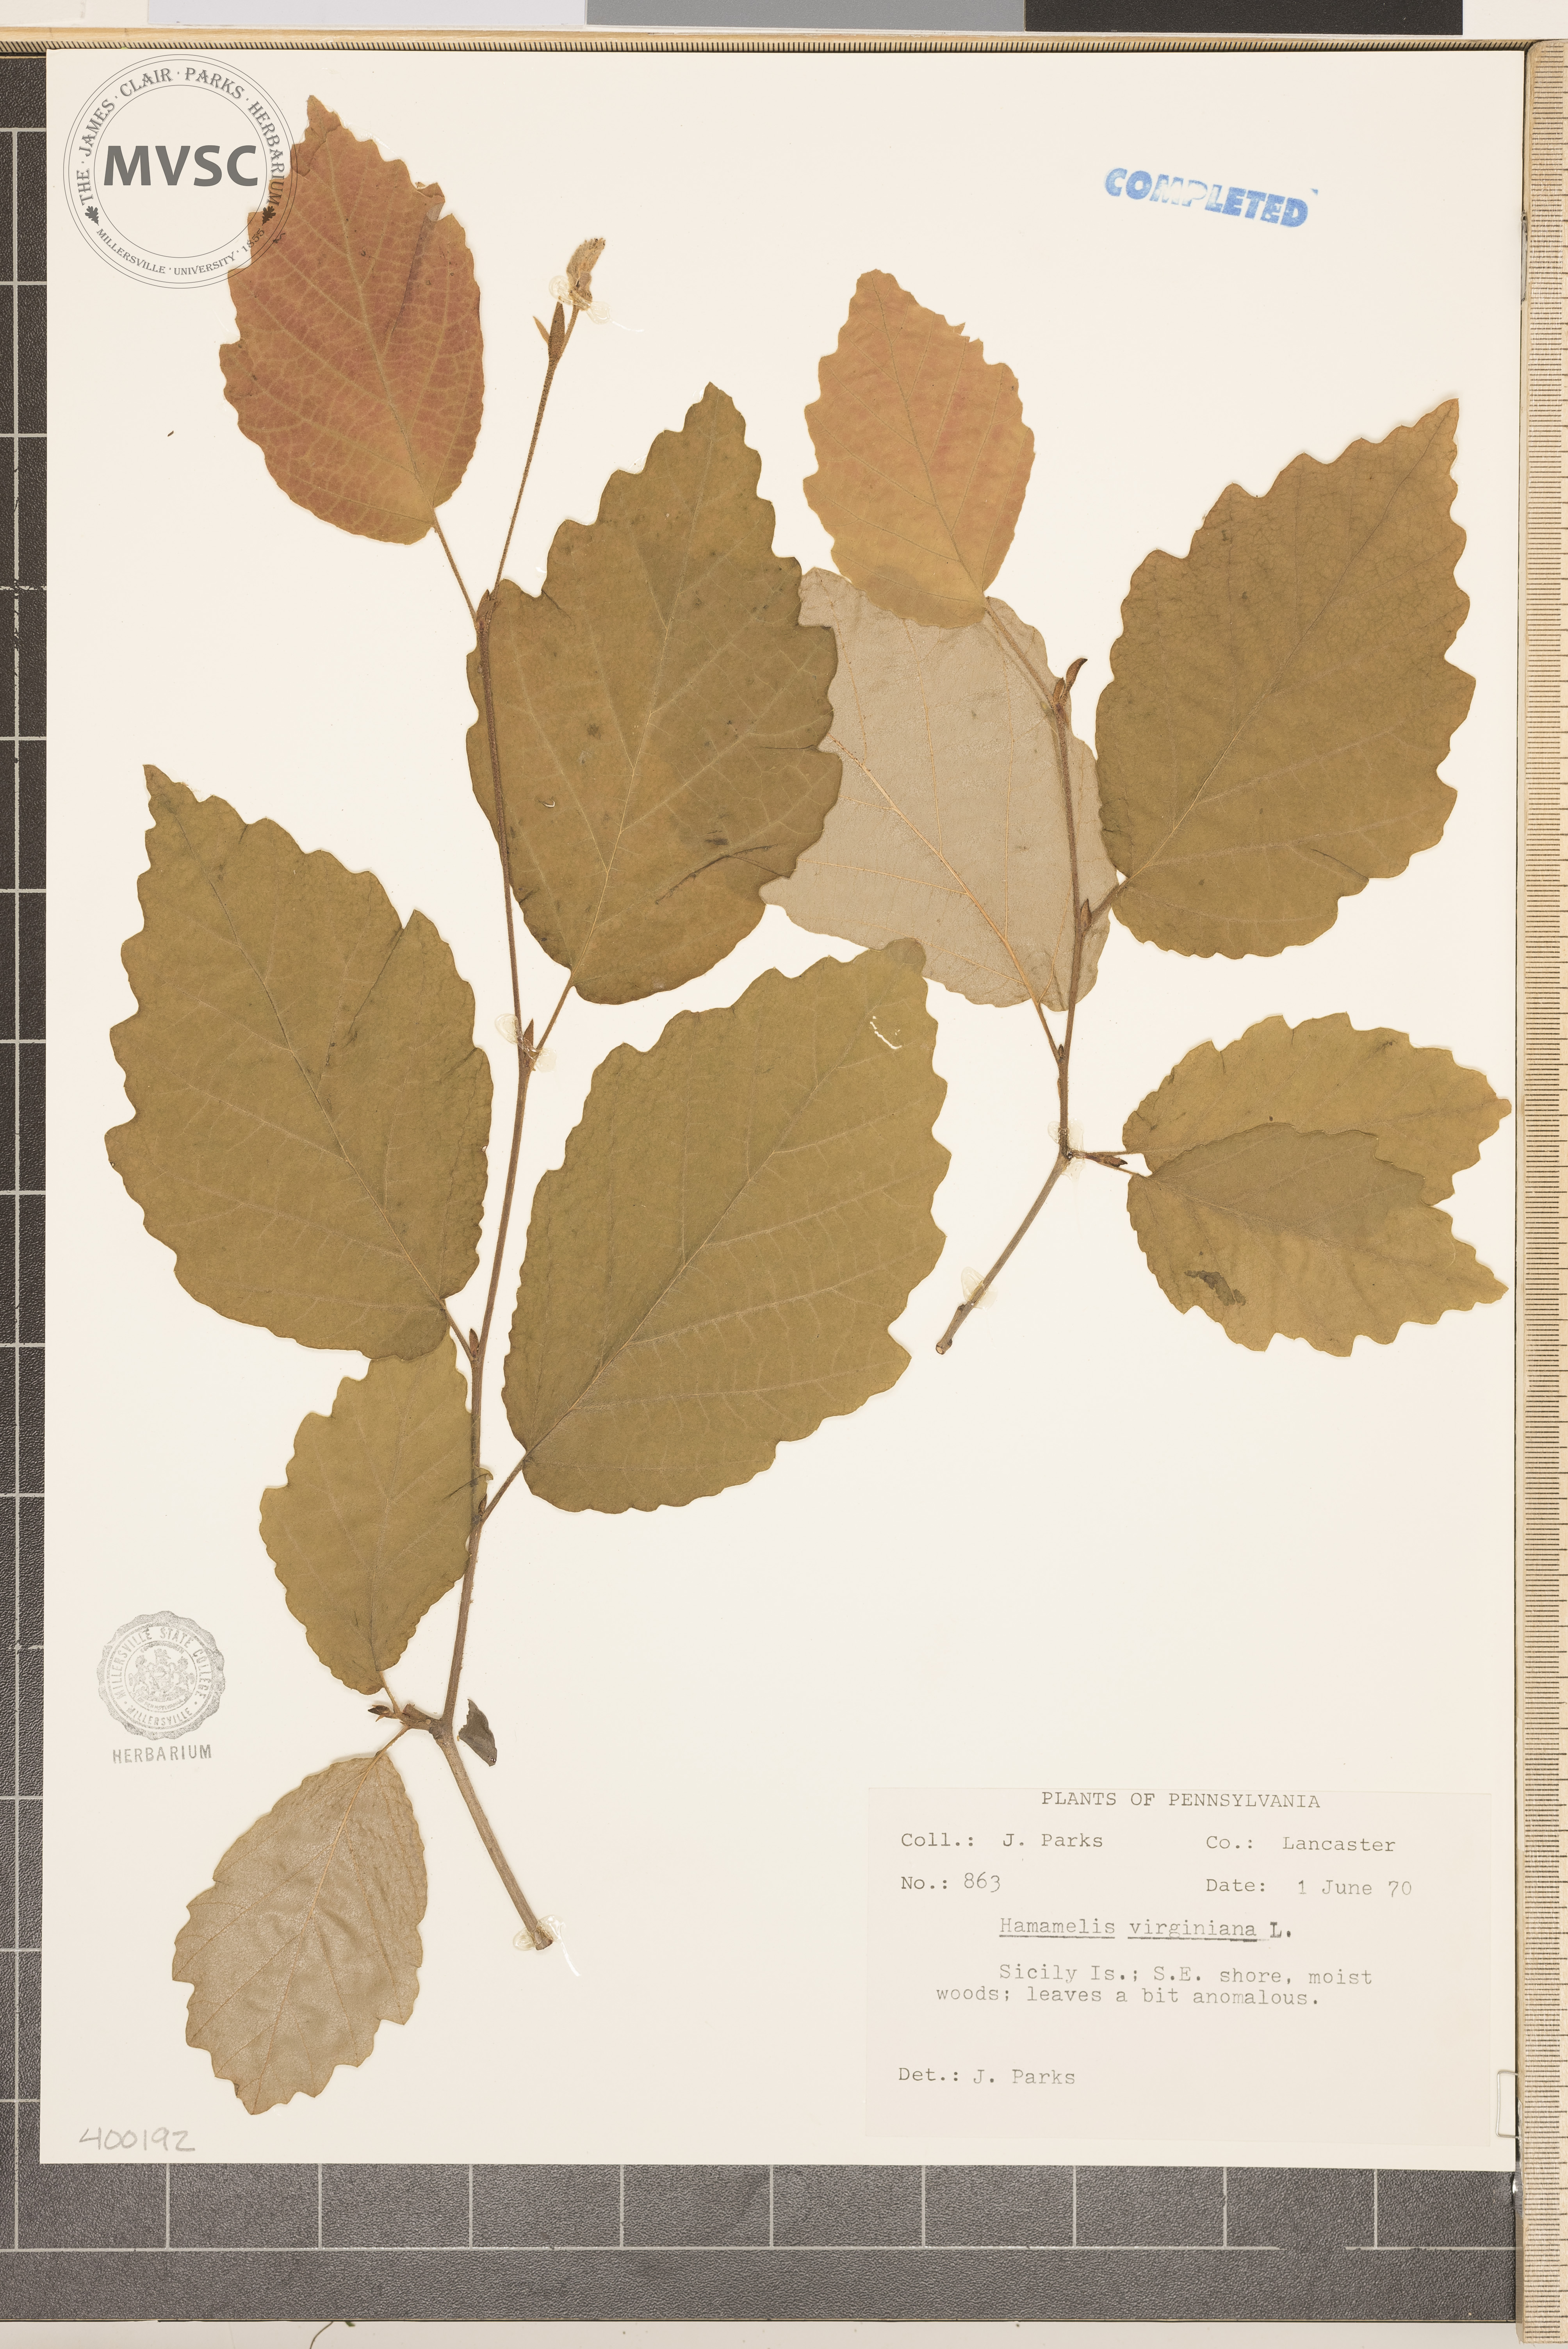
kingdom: Plantae
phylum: Tracheophyta
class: Magnoliopsida
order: Saxifragales
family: Hamamelidaceae
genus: Hamamelis
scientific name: Hamamelis virginiana
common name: witch-hazel
